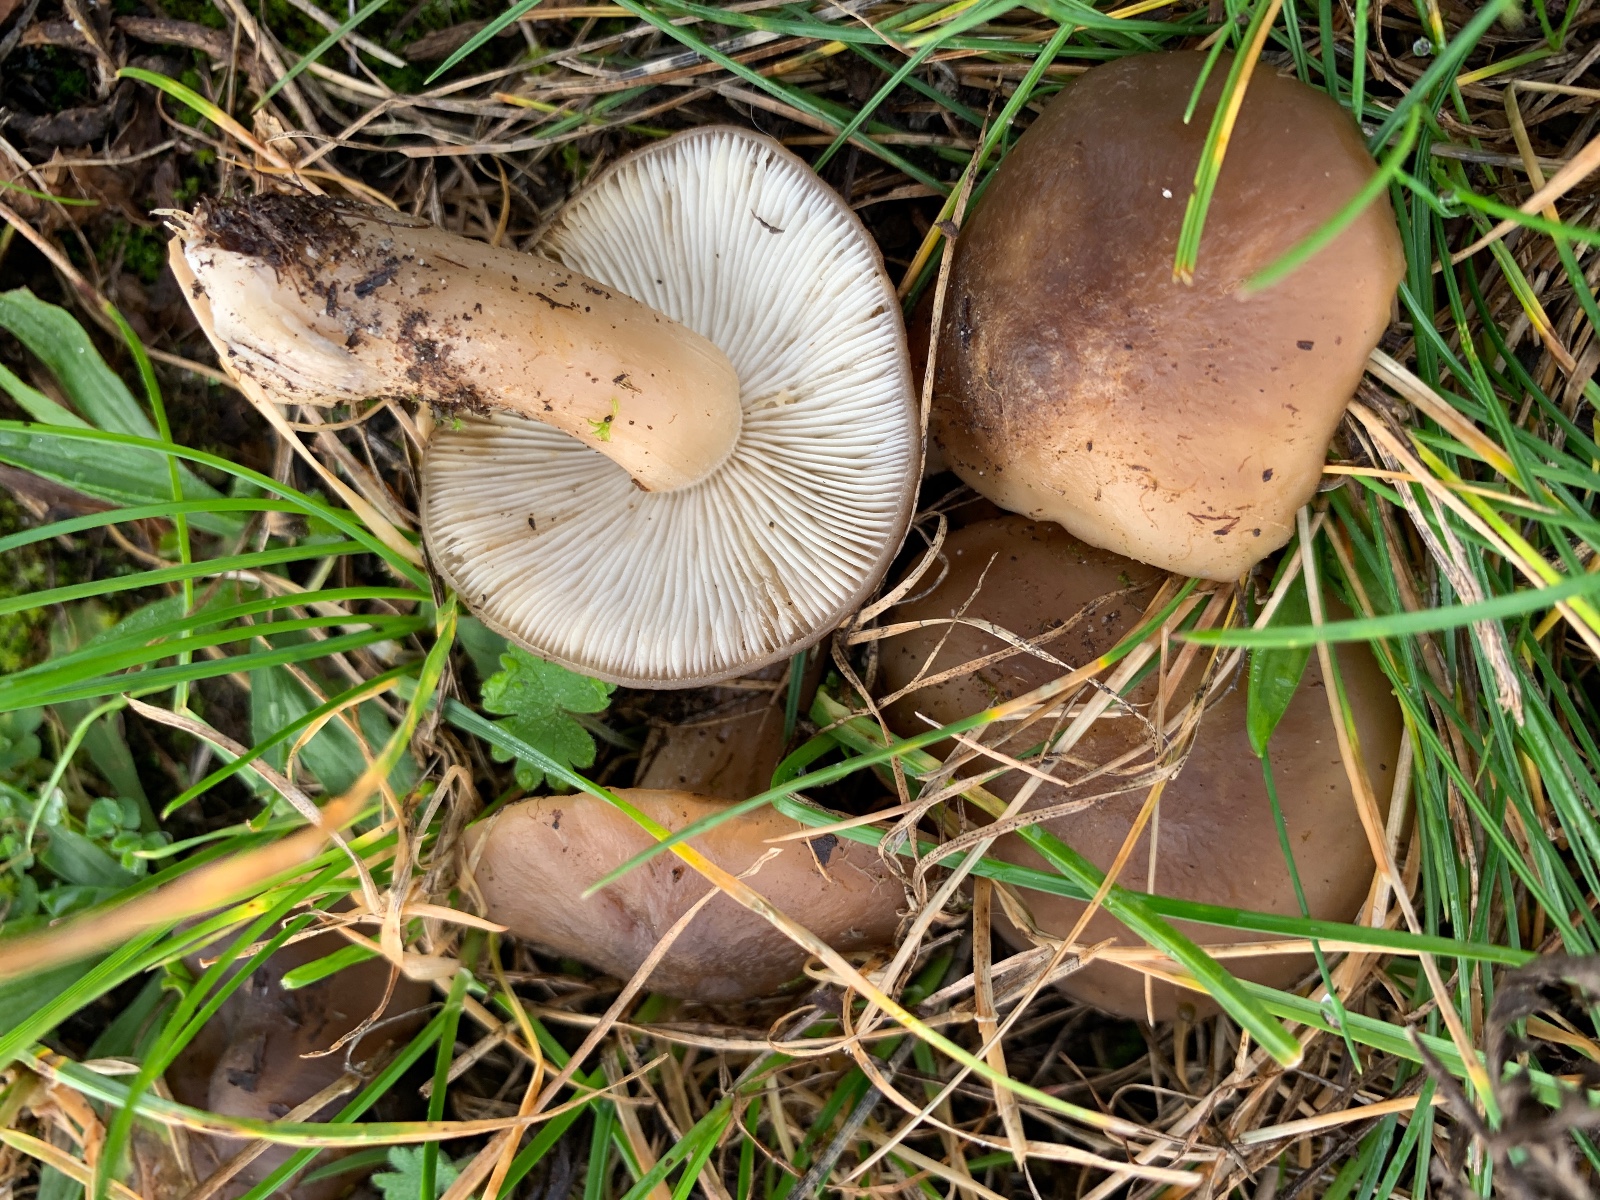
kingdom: Fungi
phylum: Basidiomycota
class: Agaricomycetes
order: Agaricales
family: Lyophyllaceae
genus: Lyophyllum
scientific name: Lyophyllum decastes
